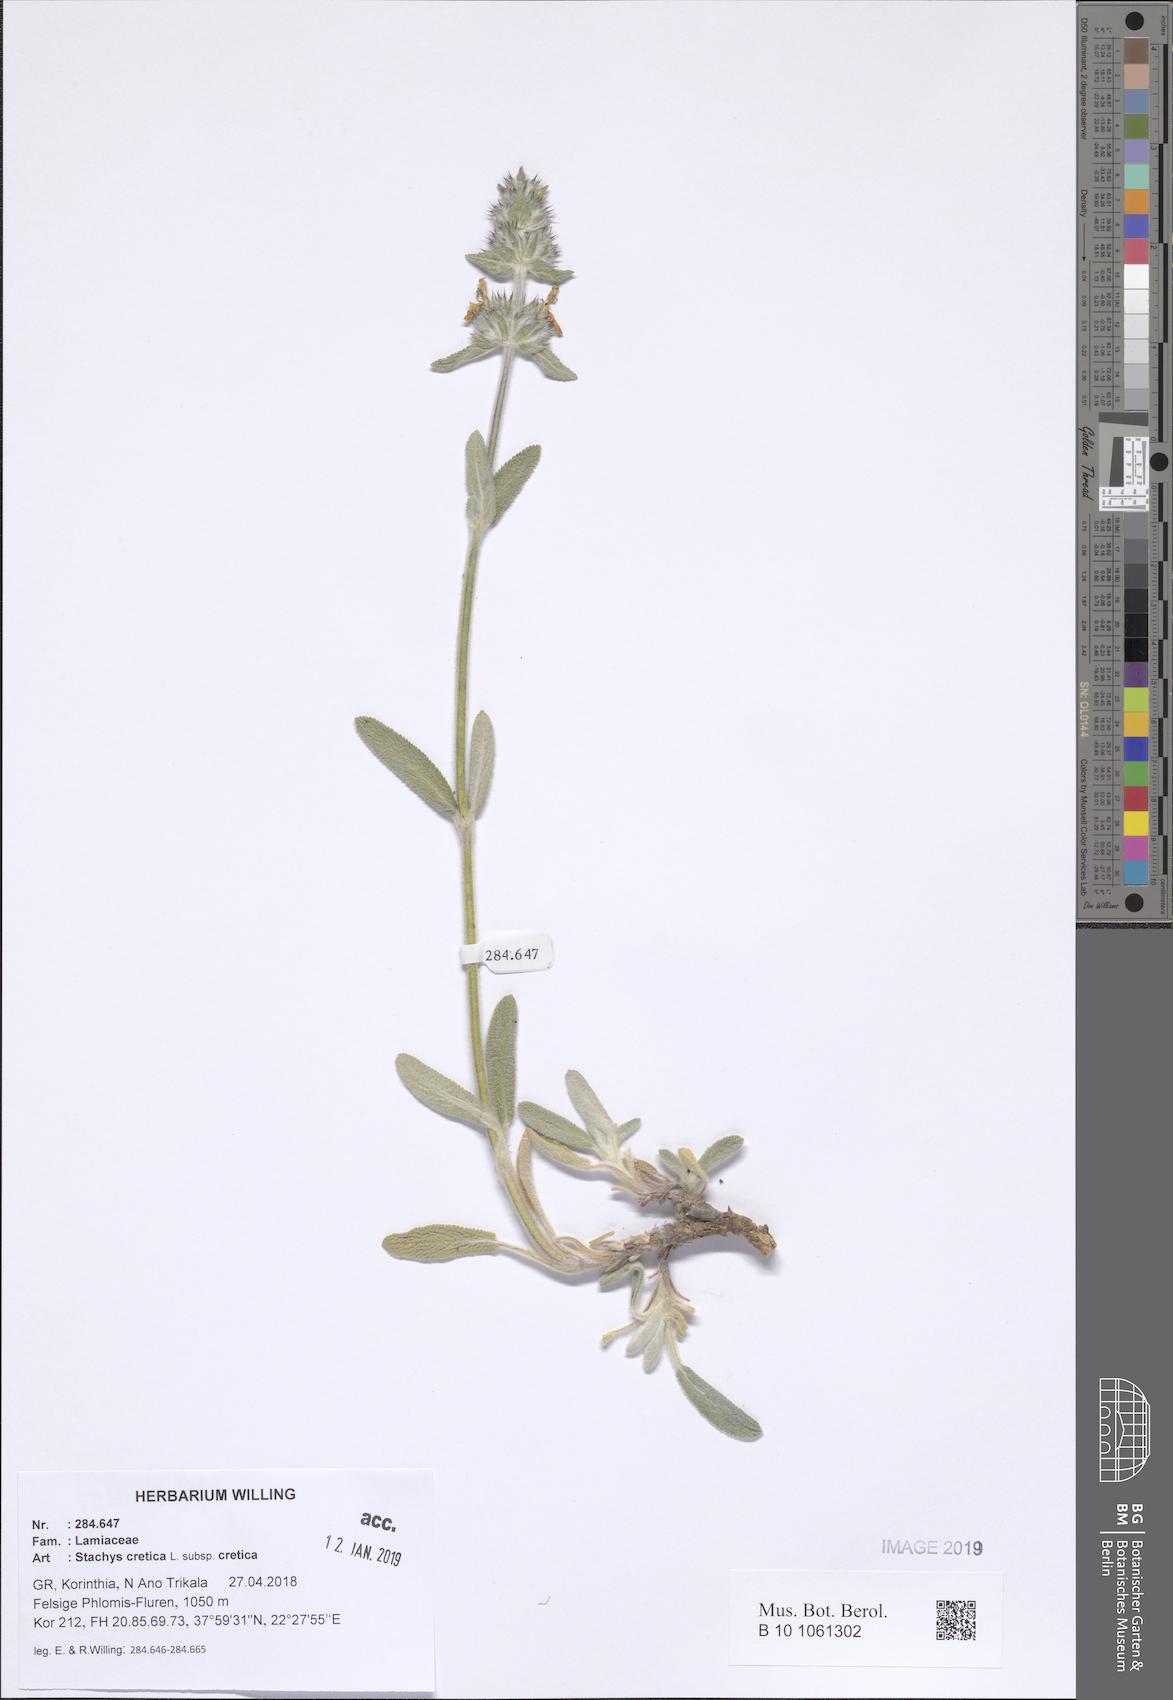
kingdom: Plantae
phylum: Tracheophyta
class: Magnoliopsida
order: Lamiales
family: Lamiaceae
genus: Stachys
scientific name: Stachys cretica
